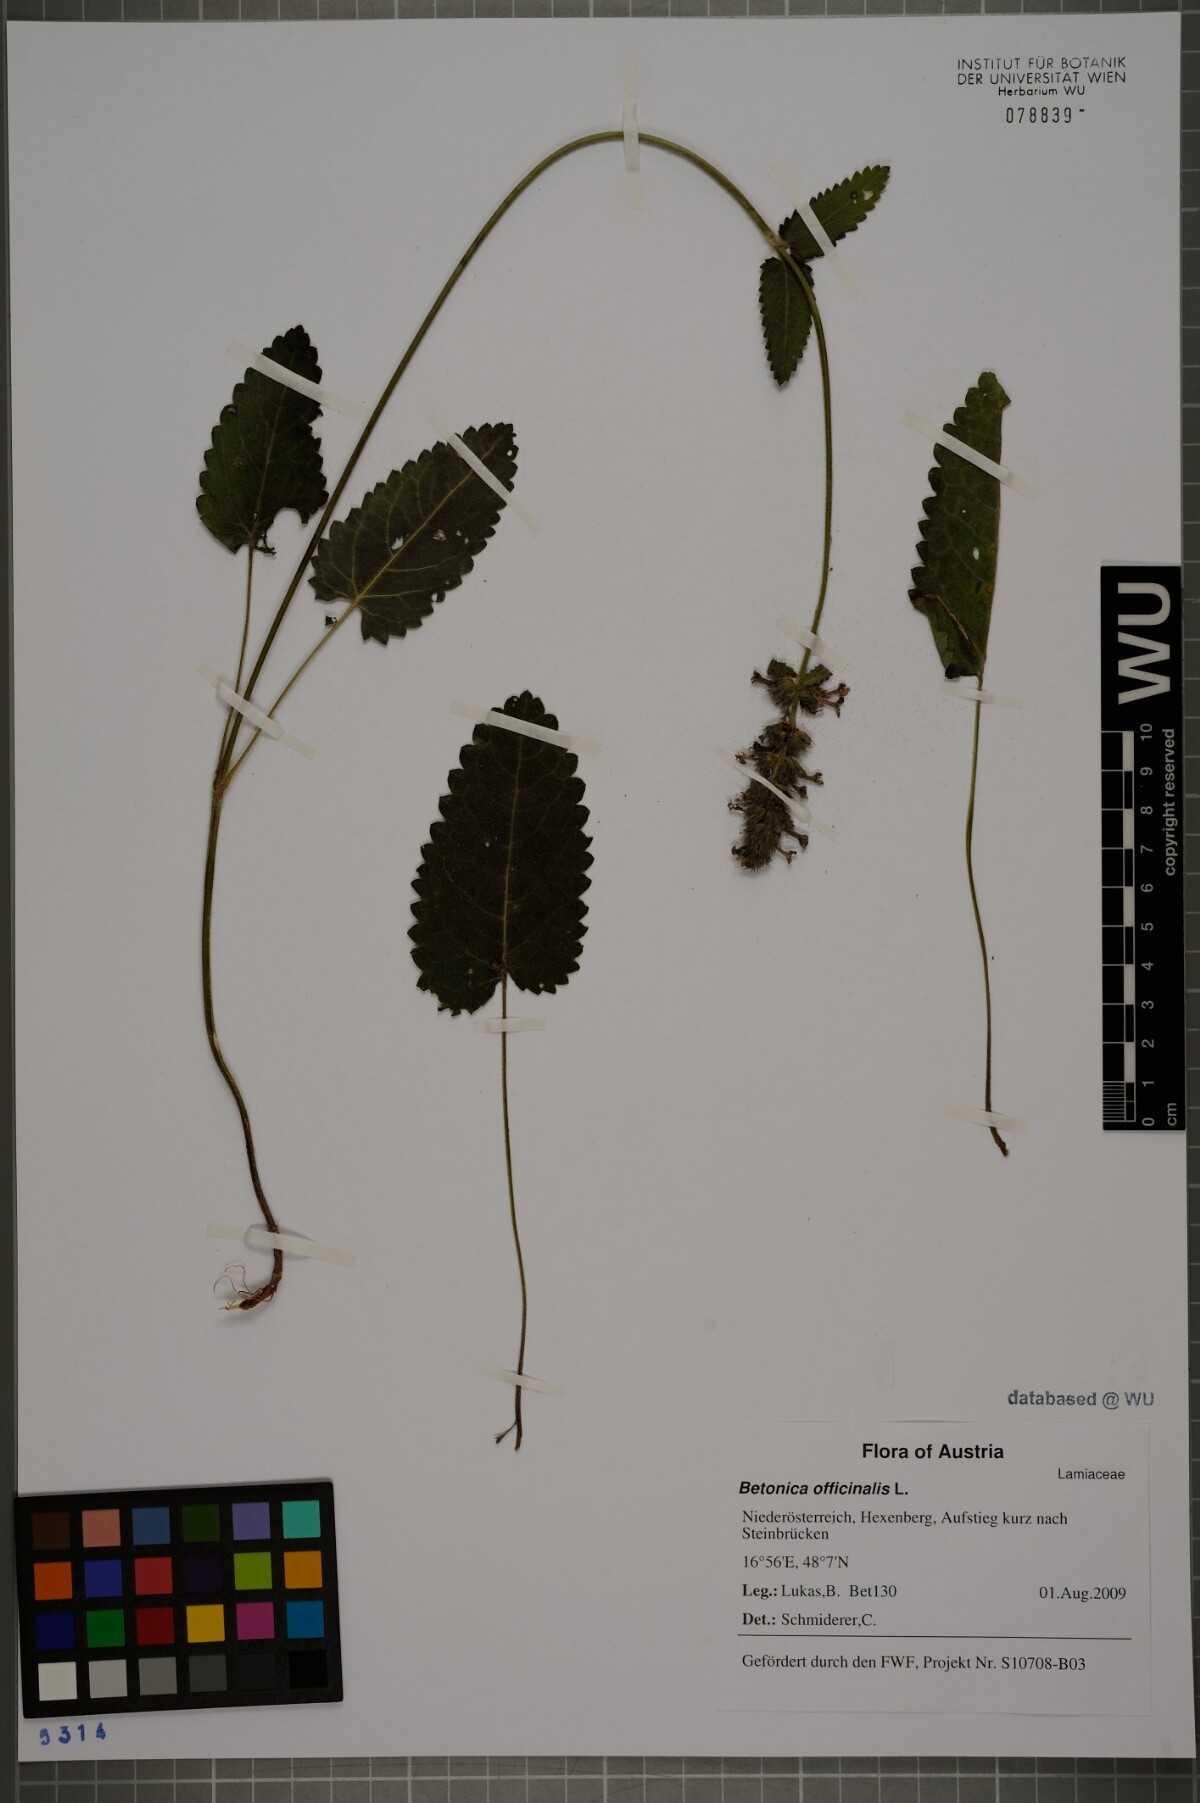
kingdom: Plantae
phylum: Tracheophyta
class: Magnoliopsida
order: Lamiales
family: Lamiaceae
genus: Betonica
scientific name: Betonica officinalis
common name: Bishop's-wort
